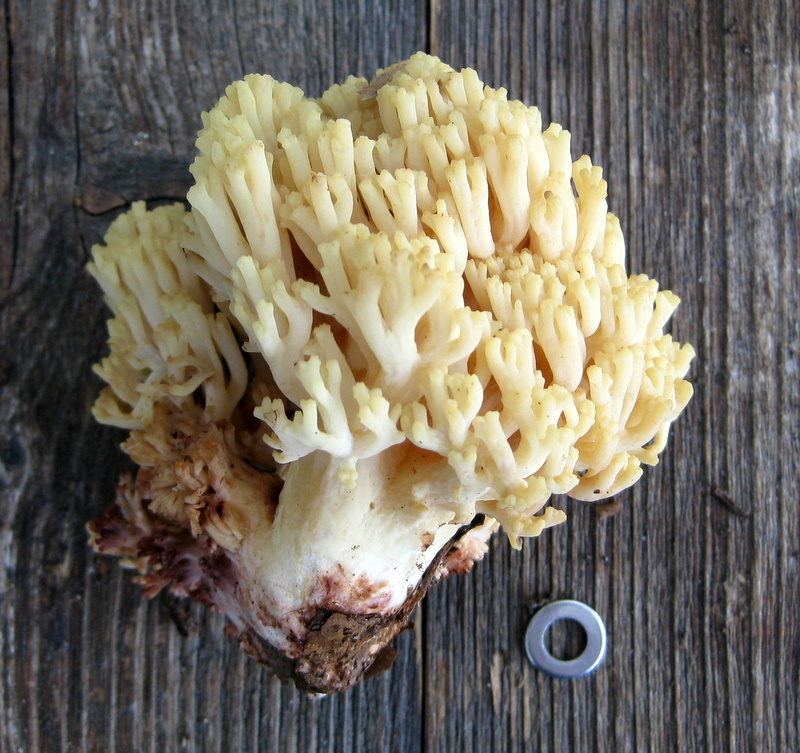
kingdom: Fungi
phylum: Basidiomycota
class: Agaricomycetes
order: Gomphales
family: Gomphaceae
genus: Ramaria
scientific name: Ramaria sanguinea
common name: blodplettet koralsvamp
